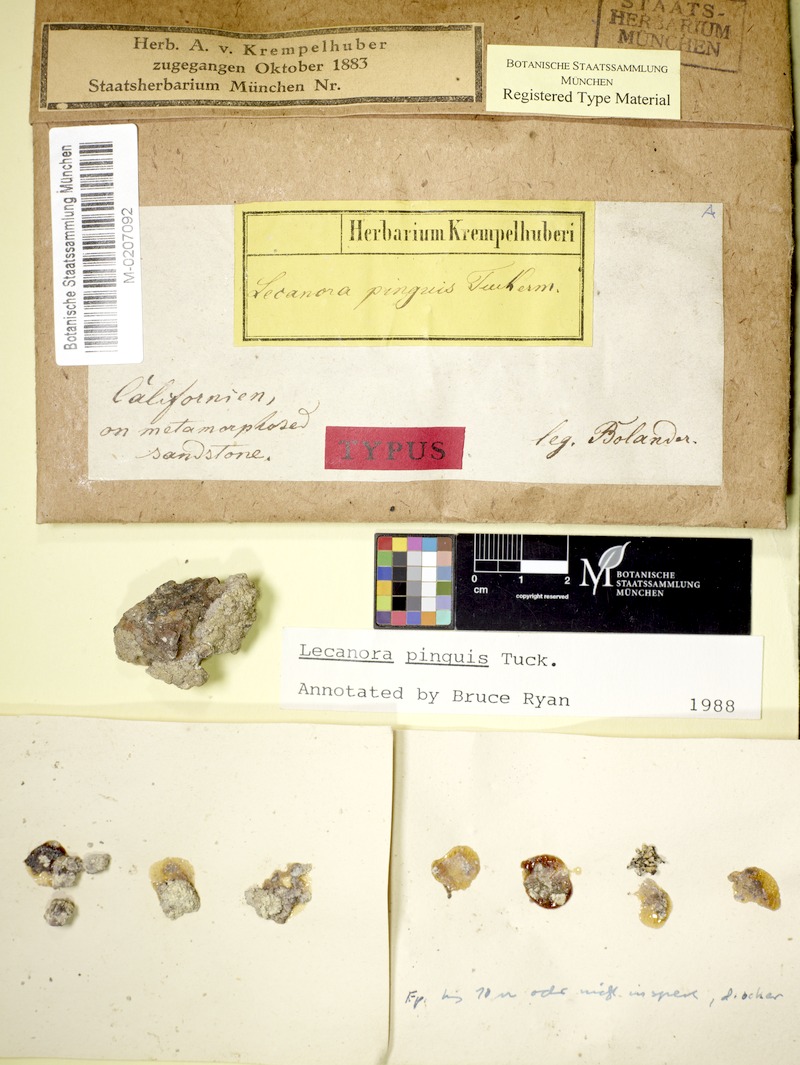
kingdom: Fungi
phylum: Ascomycota
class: Lecanoromycetes
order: Lecanorales
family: Lecanoraceae
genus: Protoparmeliopsis
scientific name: Protoparmeliopsis pinguis
